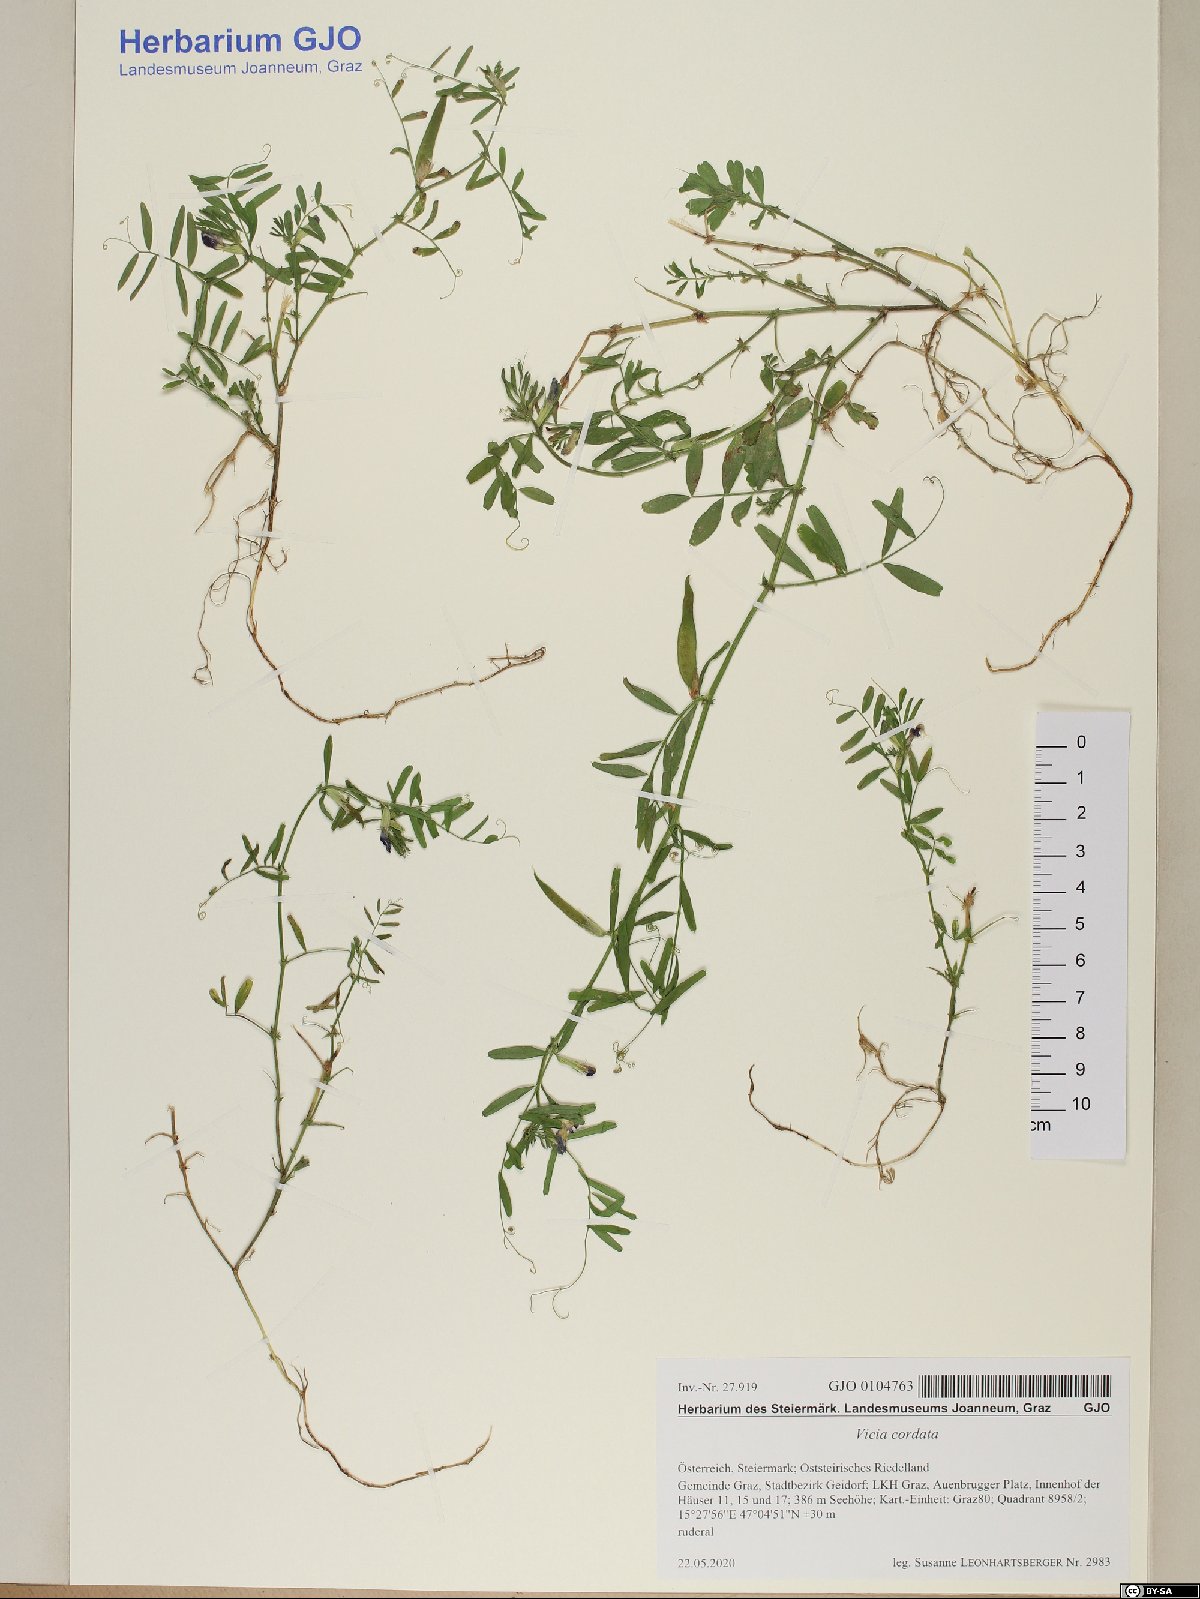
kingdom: Plantae
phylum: Tracheophyta
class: Magnoliopsida
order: Fabales
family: Fabaceae
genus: Vicia
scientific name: Vicia sativa
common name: Garden vetch
